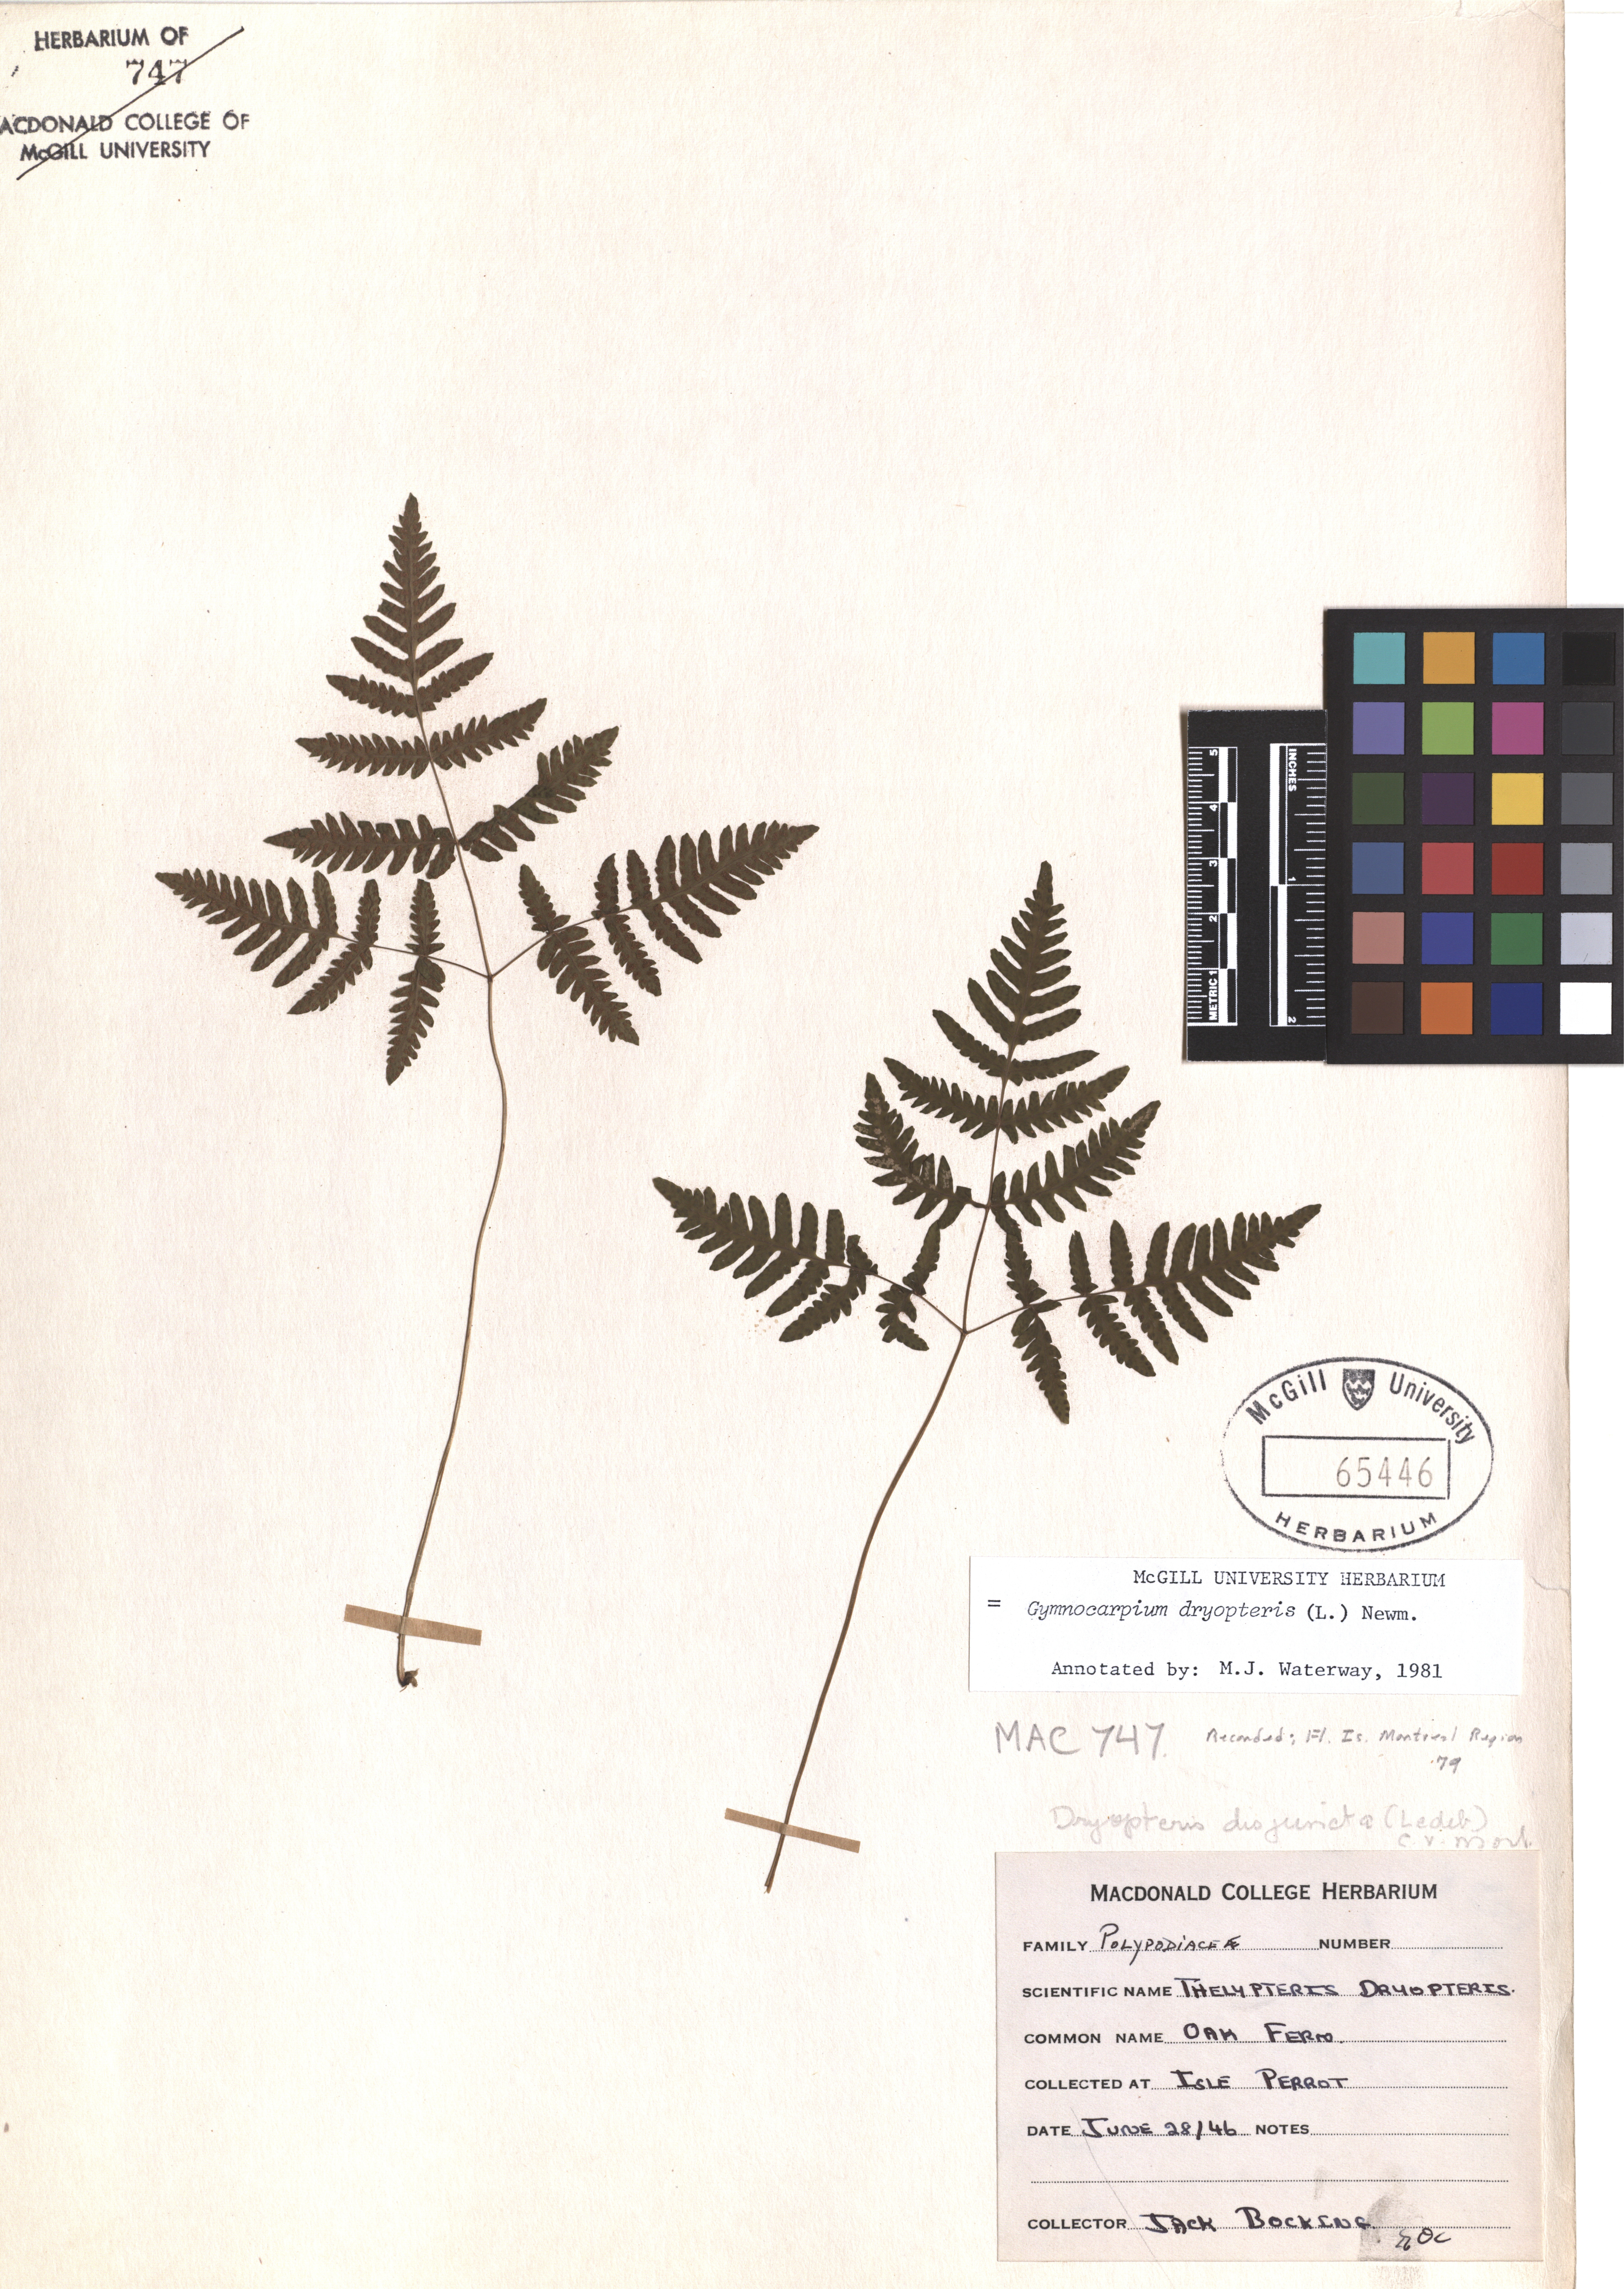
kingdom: Plantae
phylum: Tracheophyta
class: Polypodiopsida
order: Polypodiales
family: Cystopteridaceae
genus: Gymnocarpium
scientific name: Gymnocarpium dryopteris
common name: Oak fern
